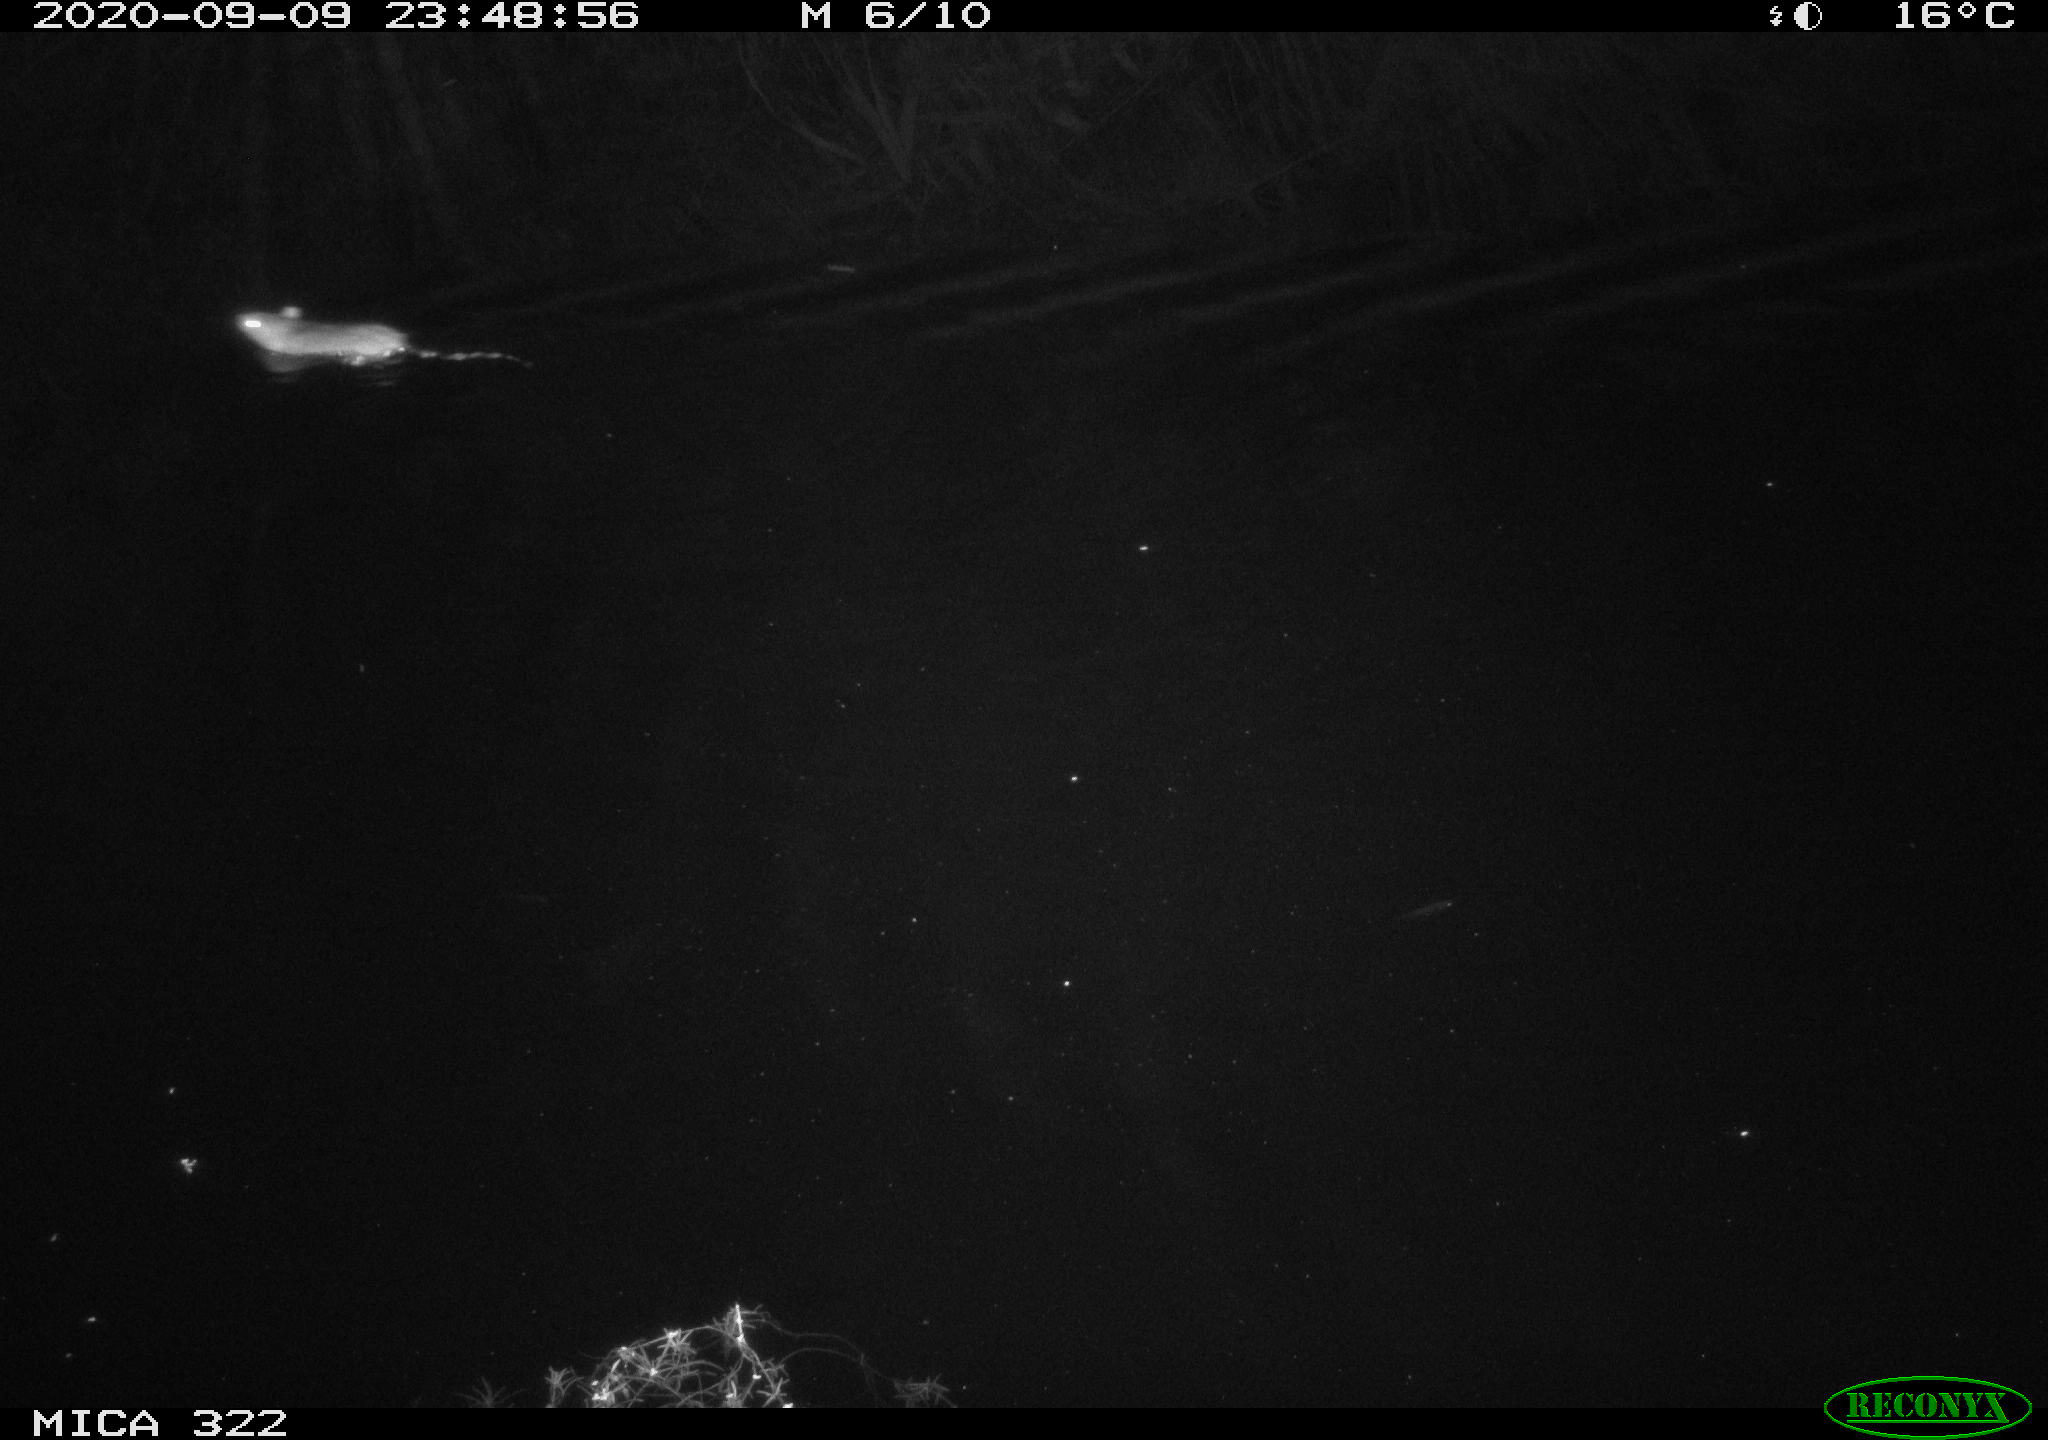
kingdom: Animalia
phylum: Chordata
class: Aves
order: Gruiformes
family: Rallidae
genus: Gallinula
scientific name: Gallinula chloropus
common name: Common moorhen
